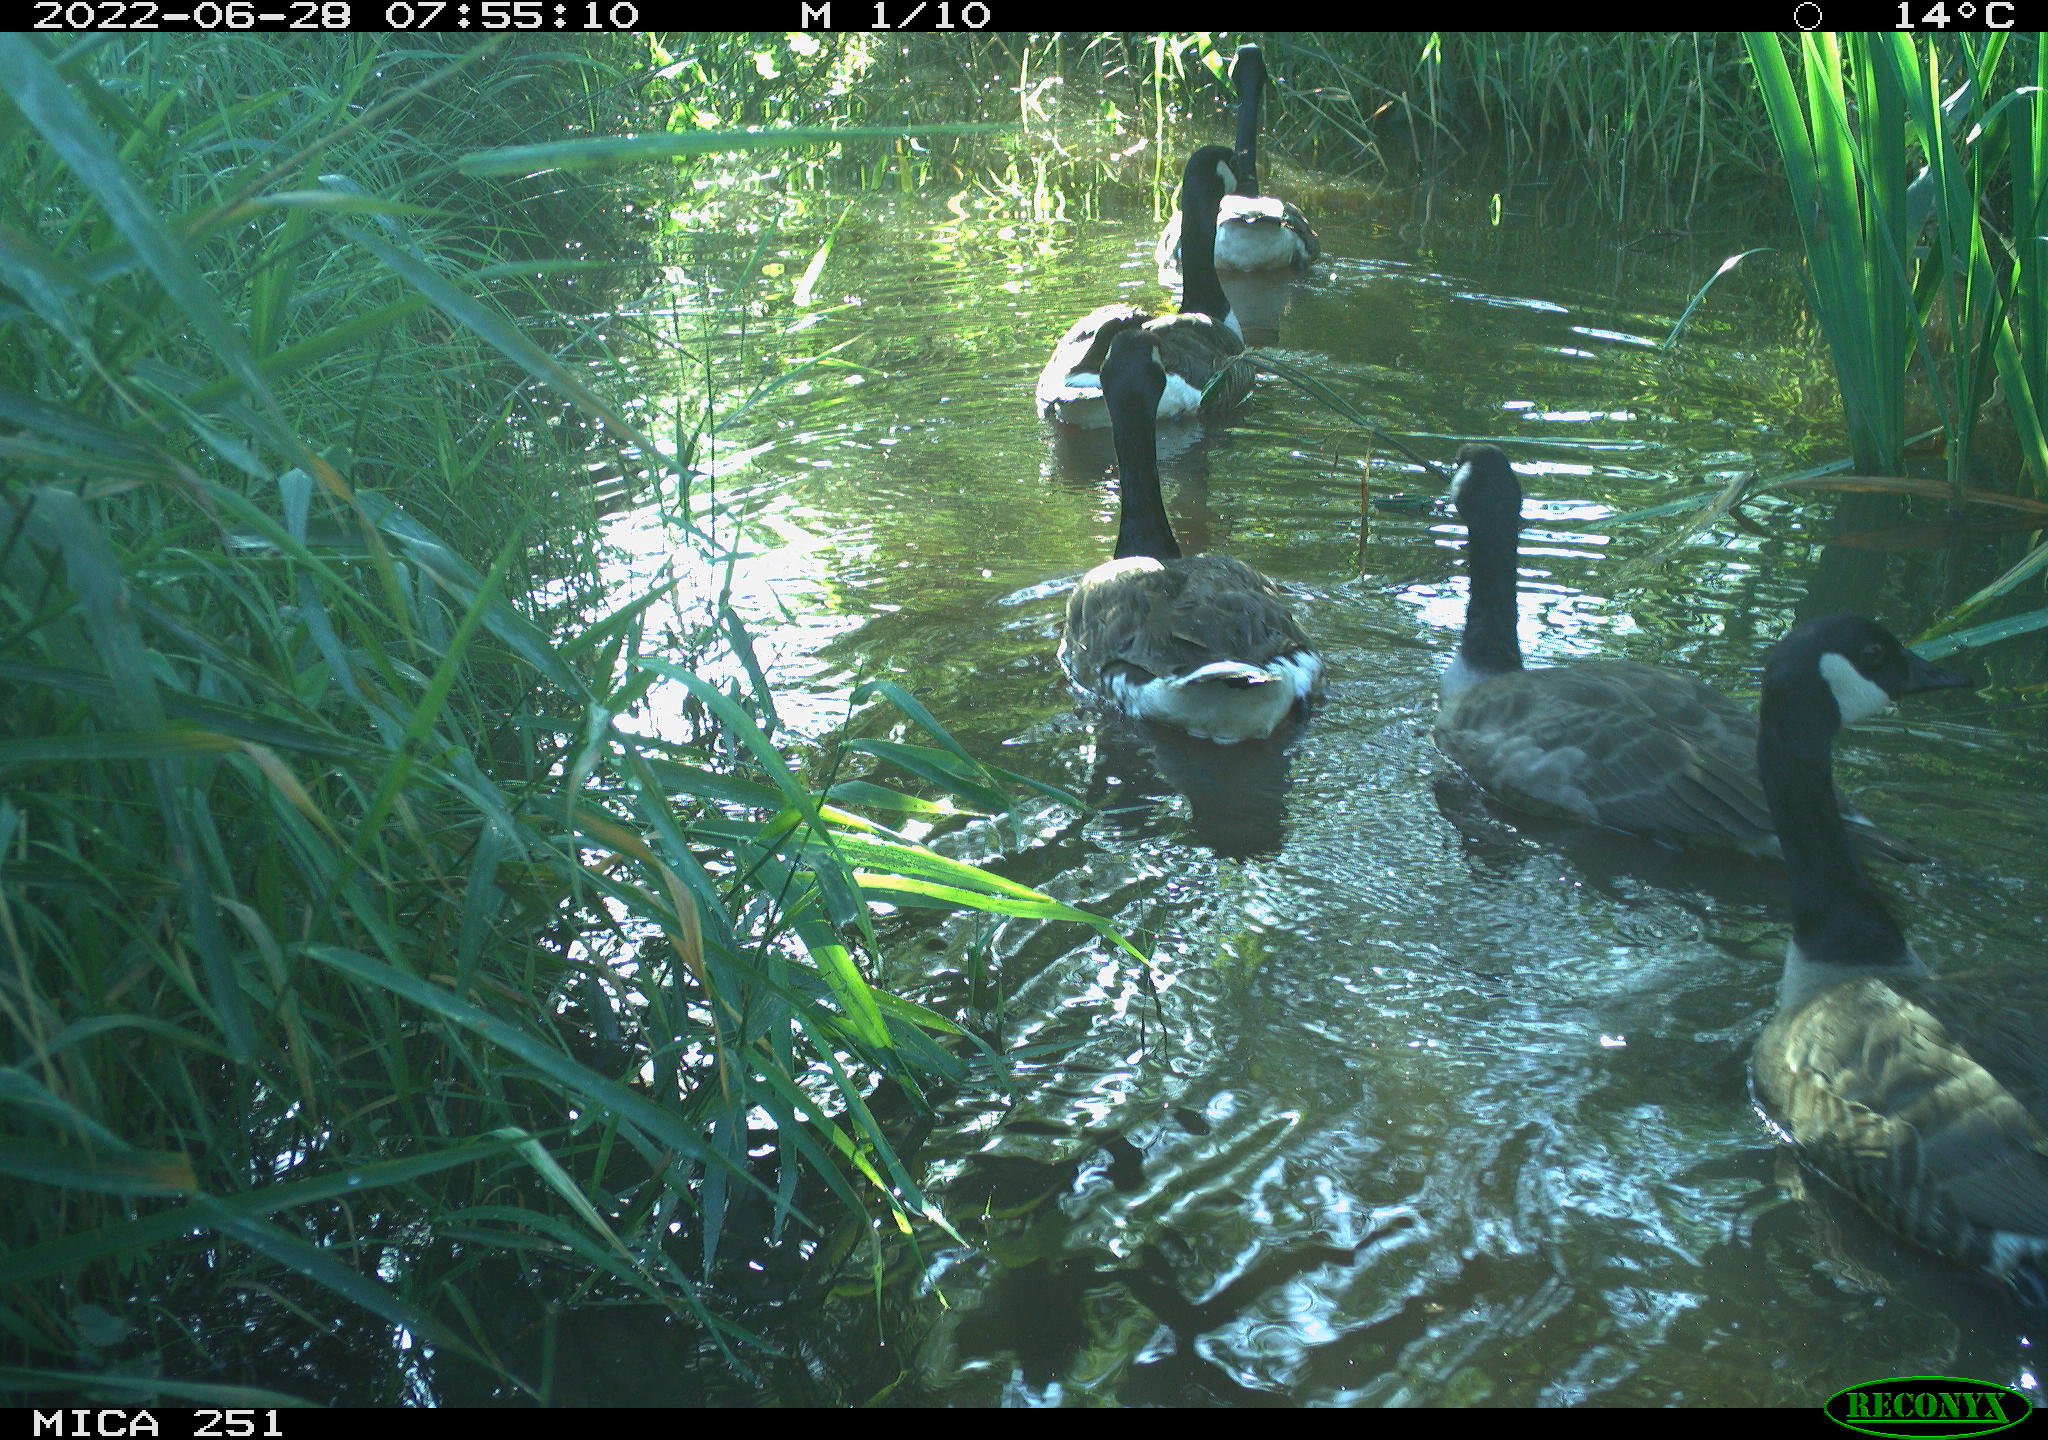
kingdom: Animalia
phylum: Chordata
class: Aves
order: Anseriformes
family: Anatidae
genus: Branta
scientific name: Branta canadensis
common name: Canada goose
